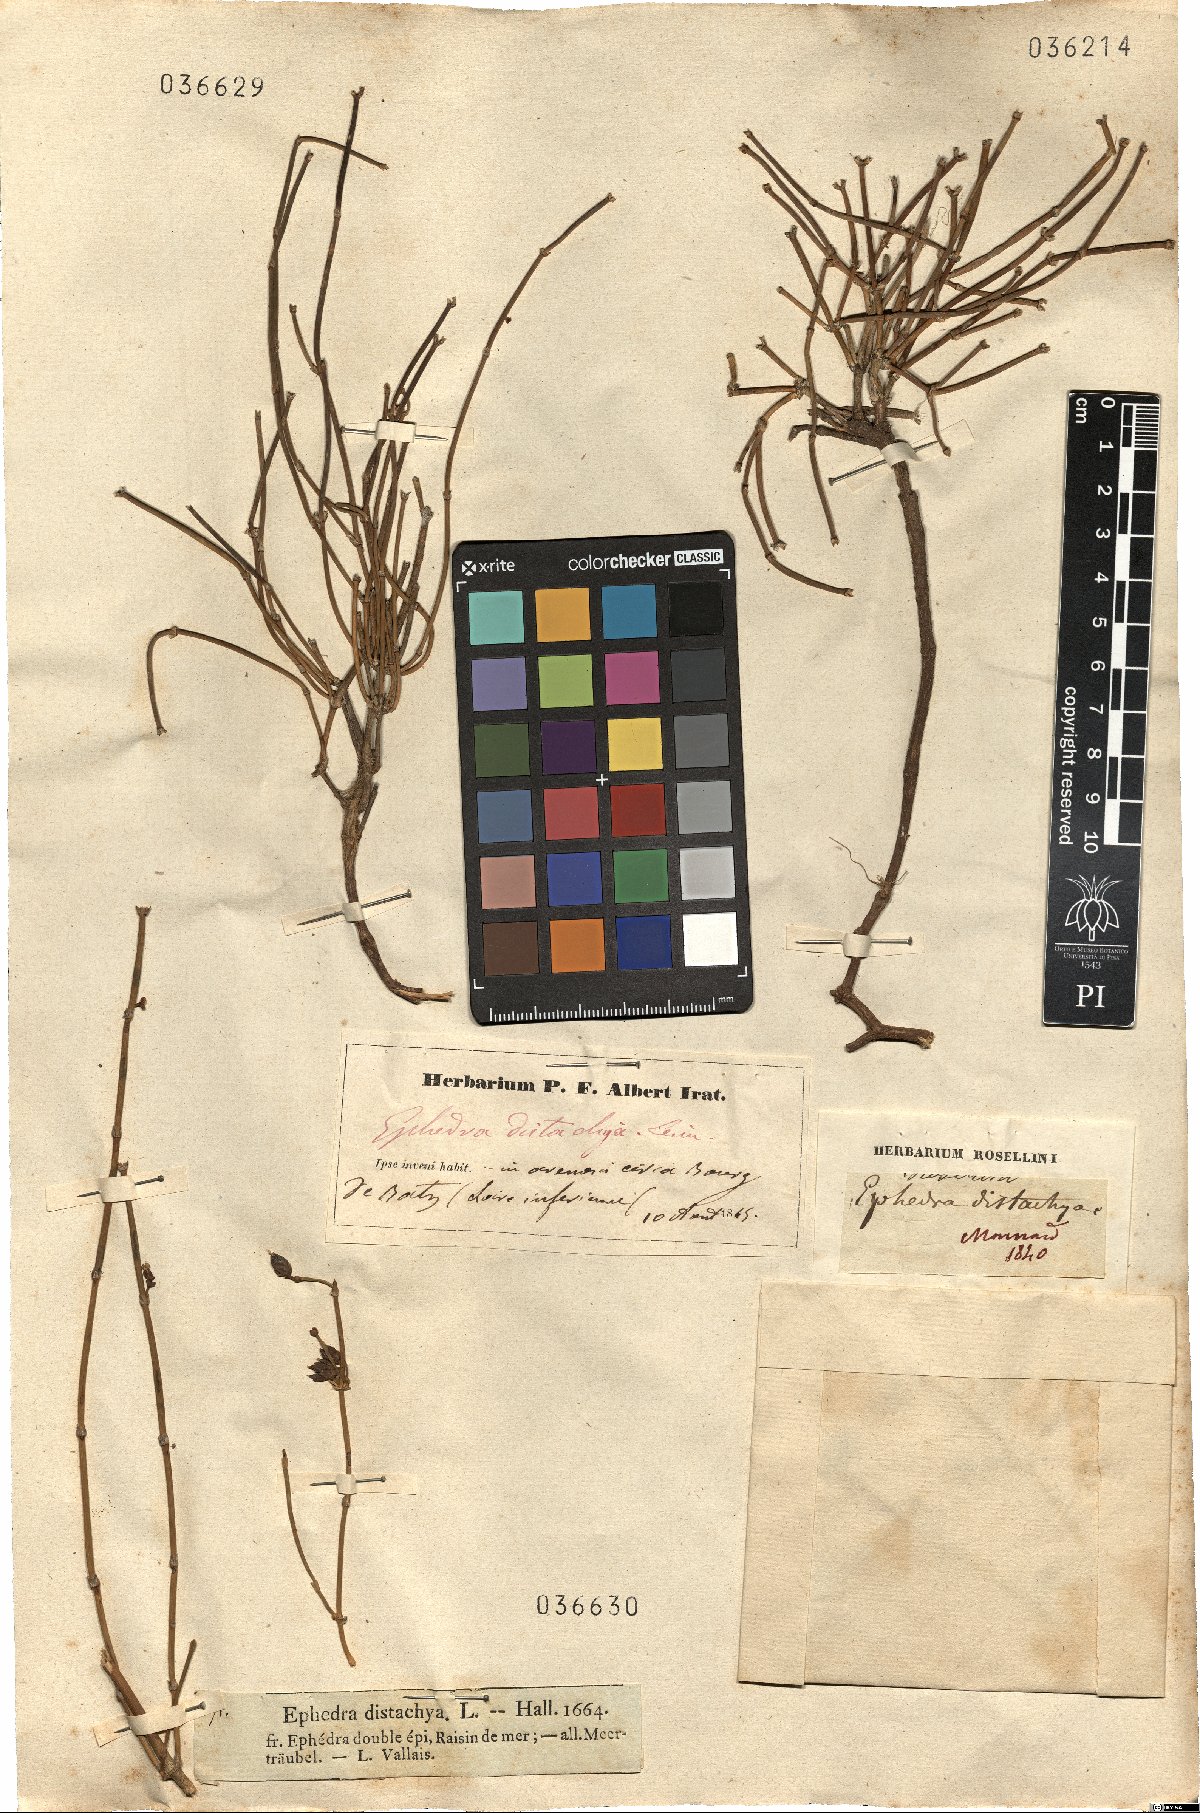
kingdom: Plantae
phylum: Tracheophyta
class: Gnetopsida
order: Ephedrales
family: Ephedraceae
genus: Ephedra
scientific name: Ephedra distachya
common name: Sea grape
